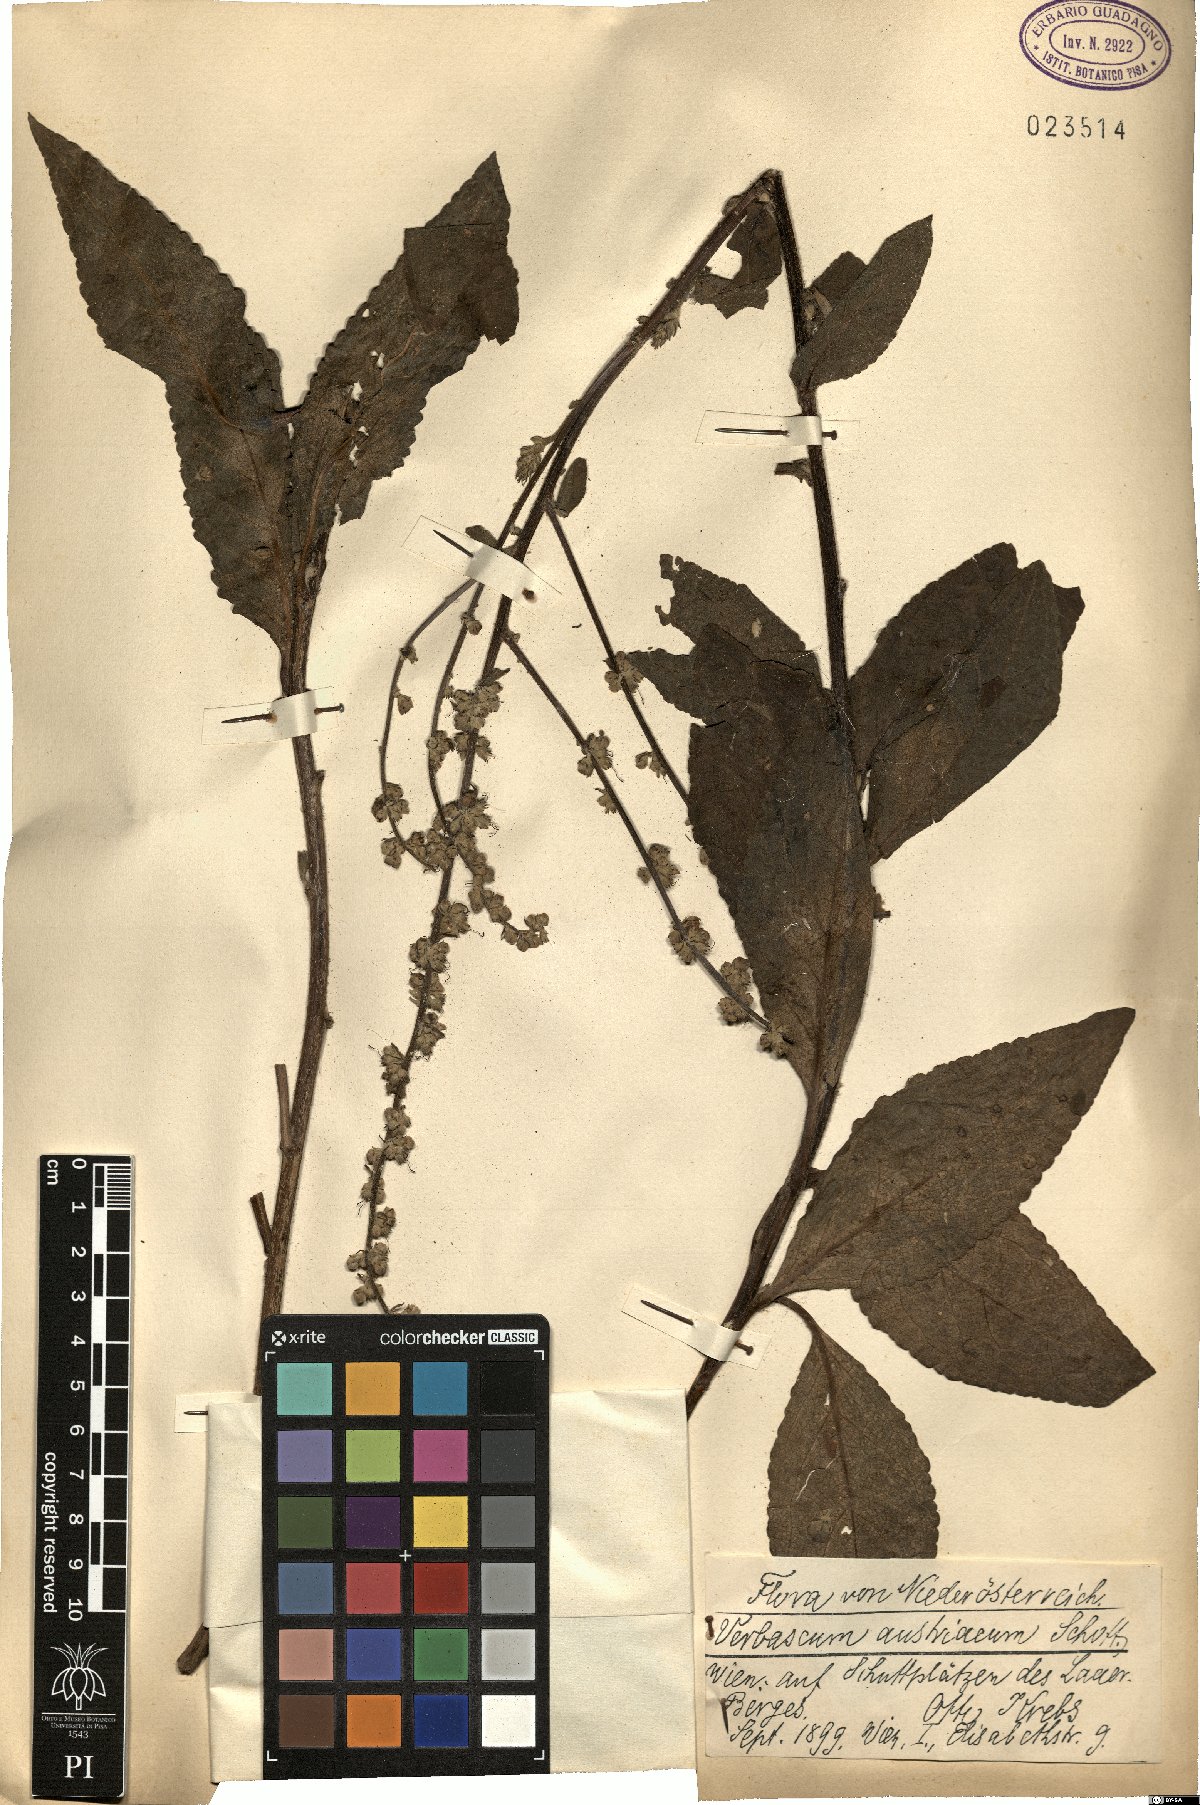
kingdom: Plantae
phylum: Tracheophyta
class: Magnoliopsida
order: Lamiales
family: Scrophulariaceae
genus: Verbascum
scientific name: Verbascum chaixii
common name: Nettle-leaved mullein
